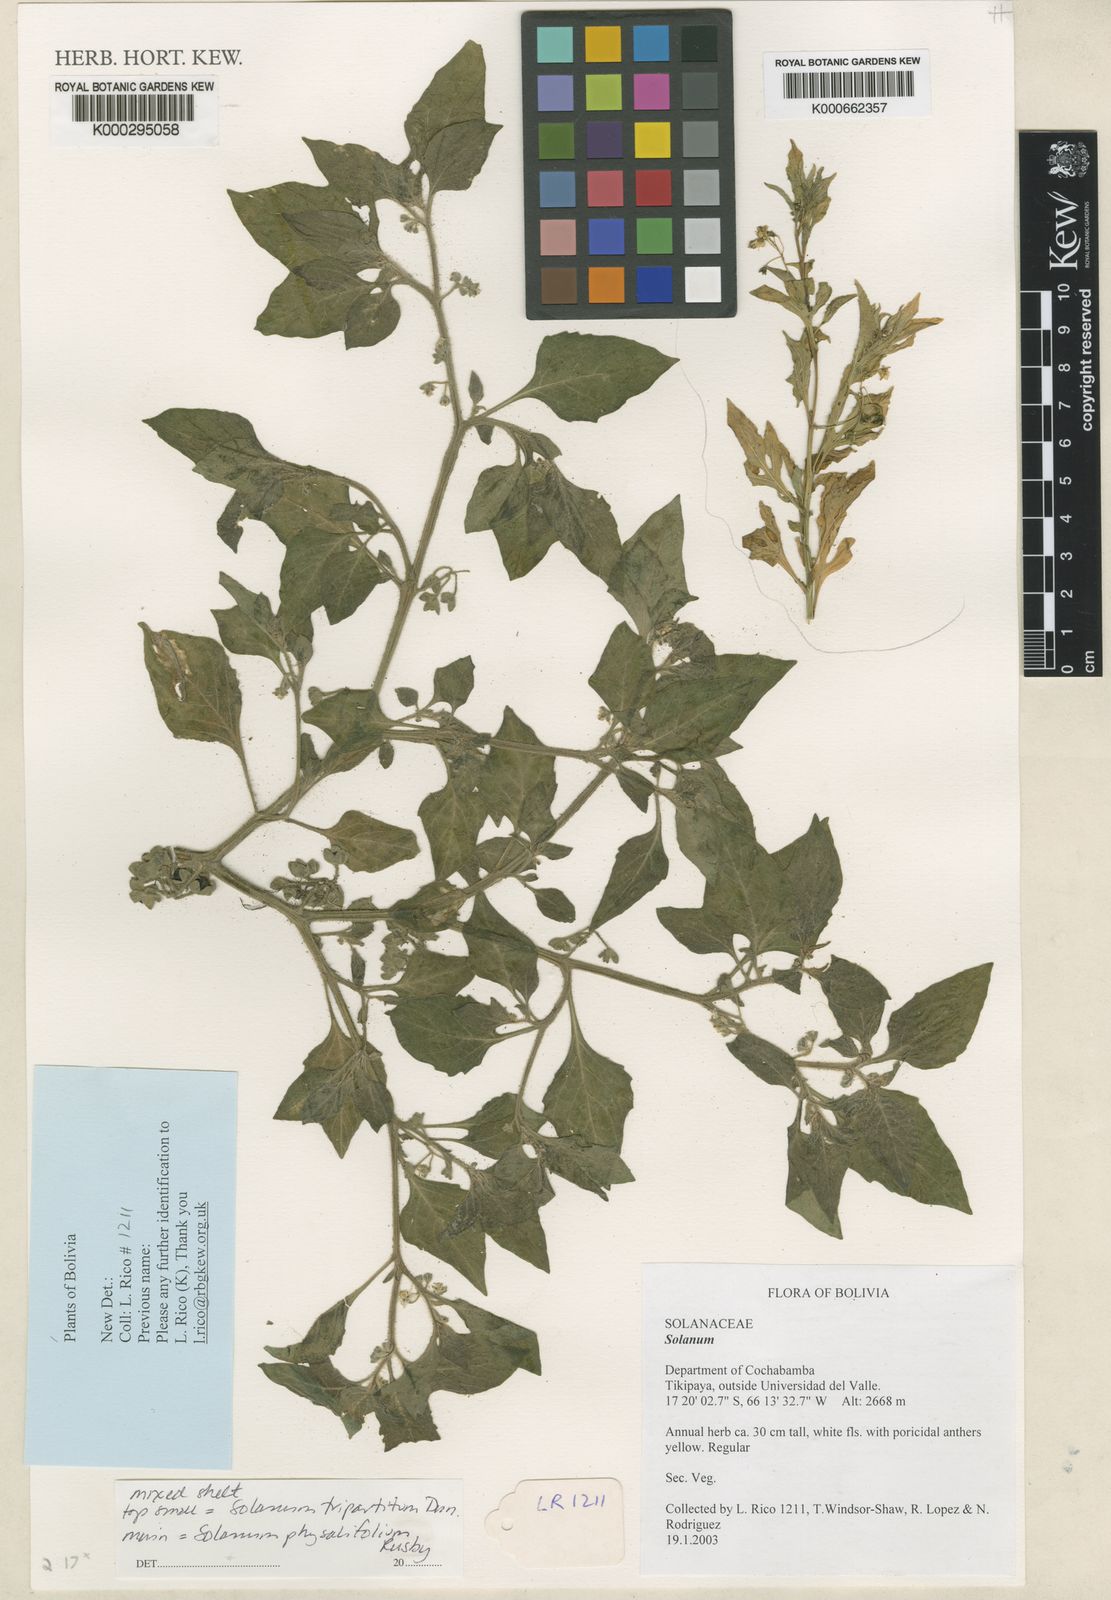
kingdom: Plantae
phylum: Tracheophyta
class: Magnoliopsida
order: Solanales
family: Solanaceae
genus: Solanum
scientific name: Solanum tripartitum
